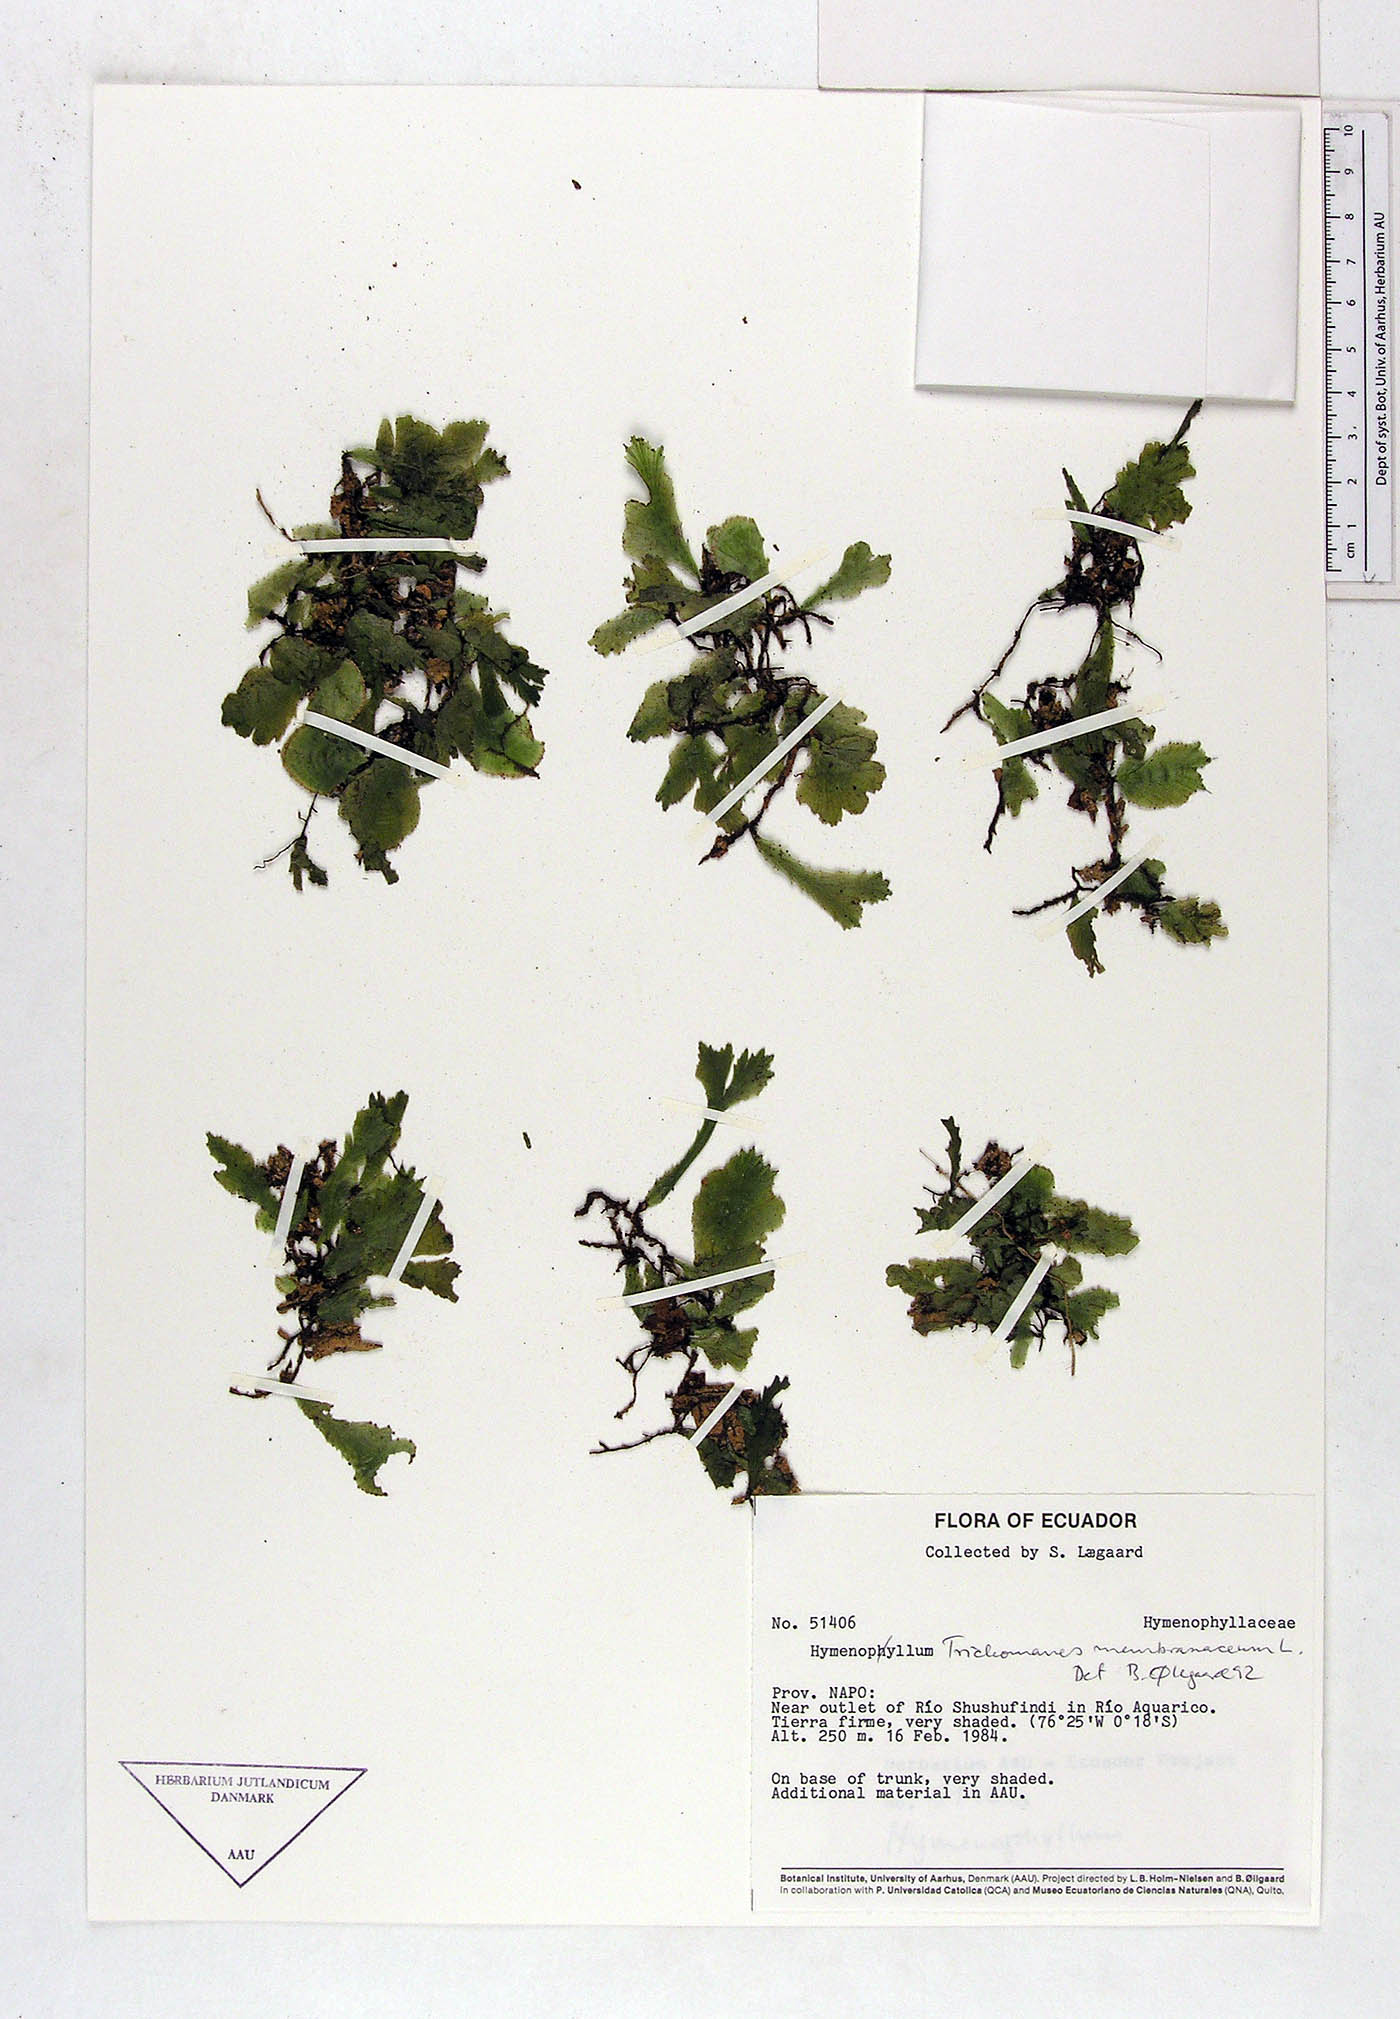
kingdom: Plantae
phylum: Tracheophyta
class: Polypodiopsida
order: Hymenophyllales
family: Hymenophyllaceae
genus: Hymenophyllum
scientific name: Hymenophyllum
